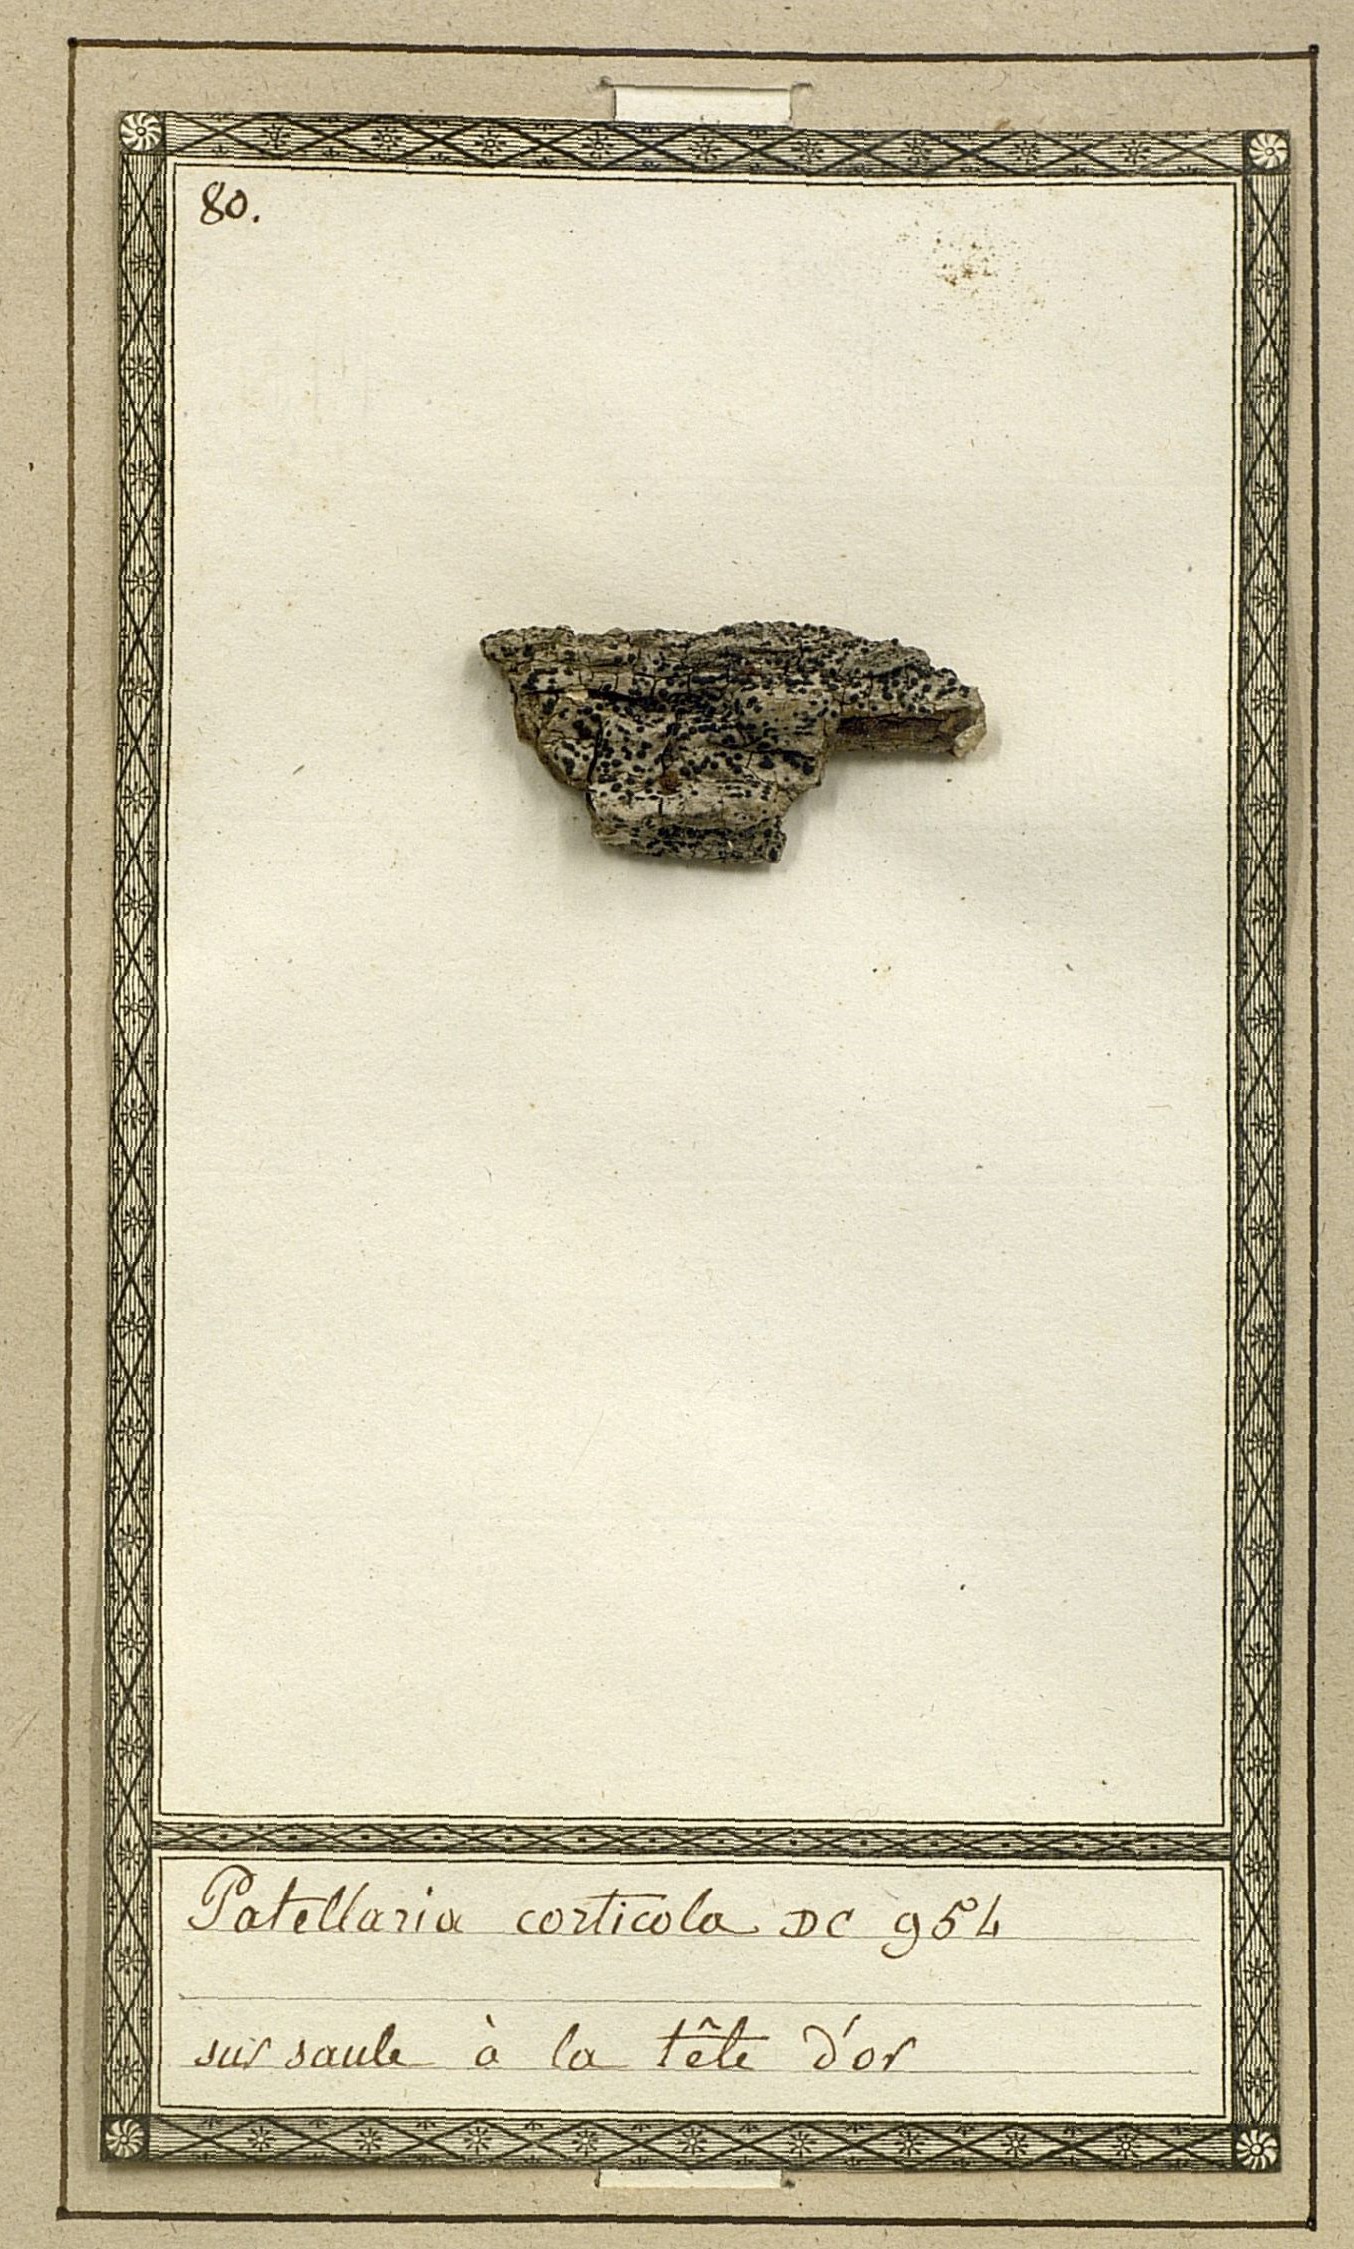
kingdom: Fungi
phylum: Ascomycota
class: Lecanoromycetes
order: Caliciales
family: Caliciaceae
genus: Diplotomma
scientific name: Diplotomma alboatrum
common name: Grayish button lichen
